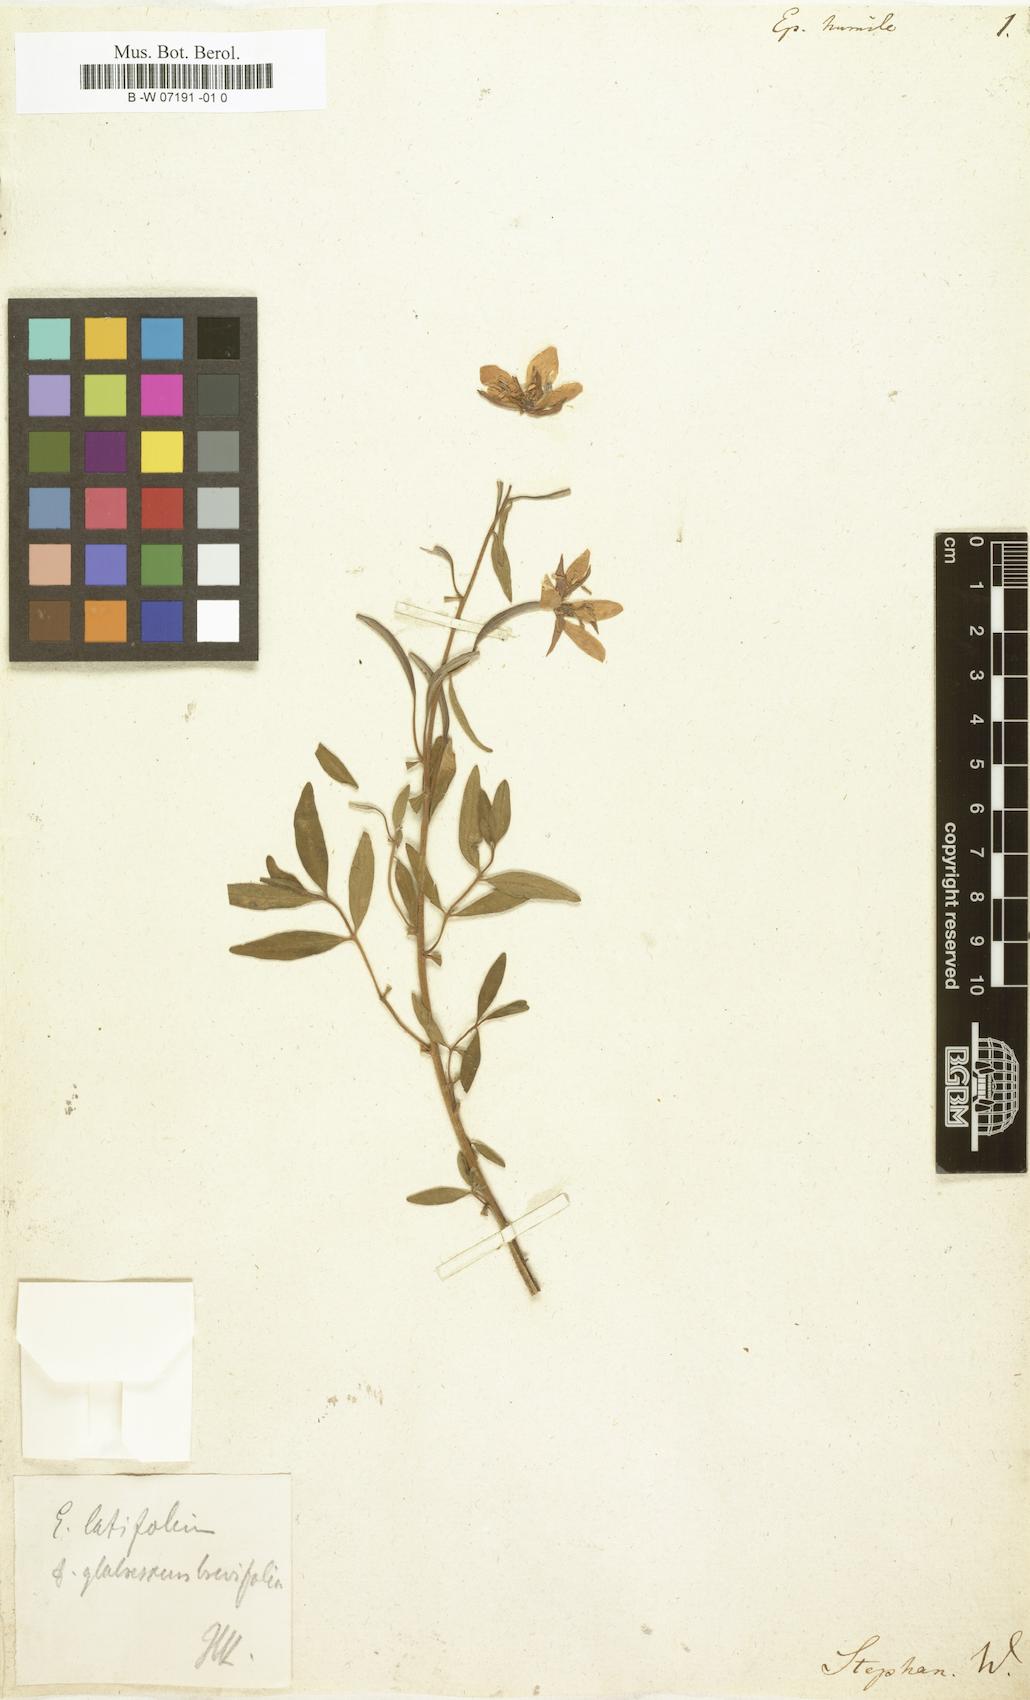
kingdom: Plantae
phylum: Tracheophyta
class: Magnoliopsida
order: Myrtales
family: Onagraceae
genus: Chamaenerion
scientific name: Chamaenerion latifolium
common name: Dwarf fireweed
